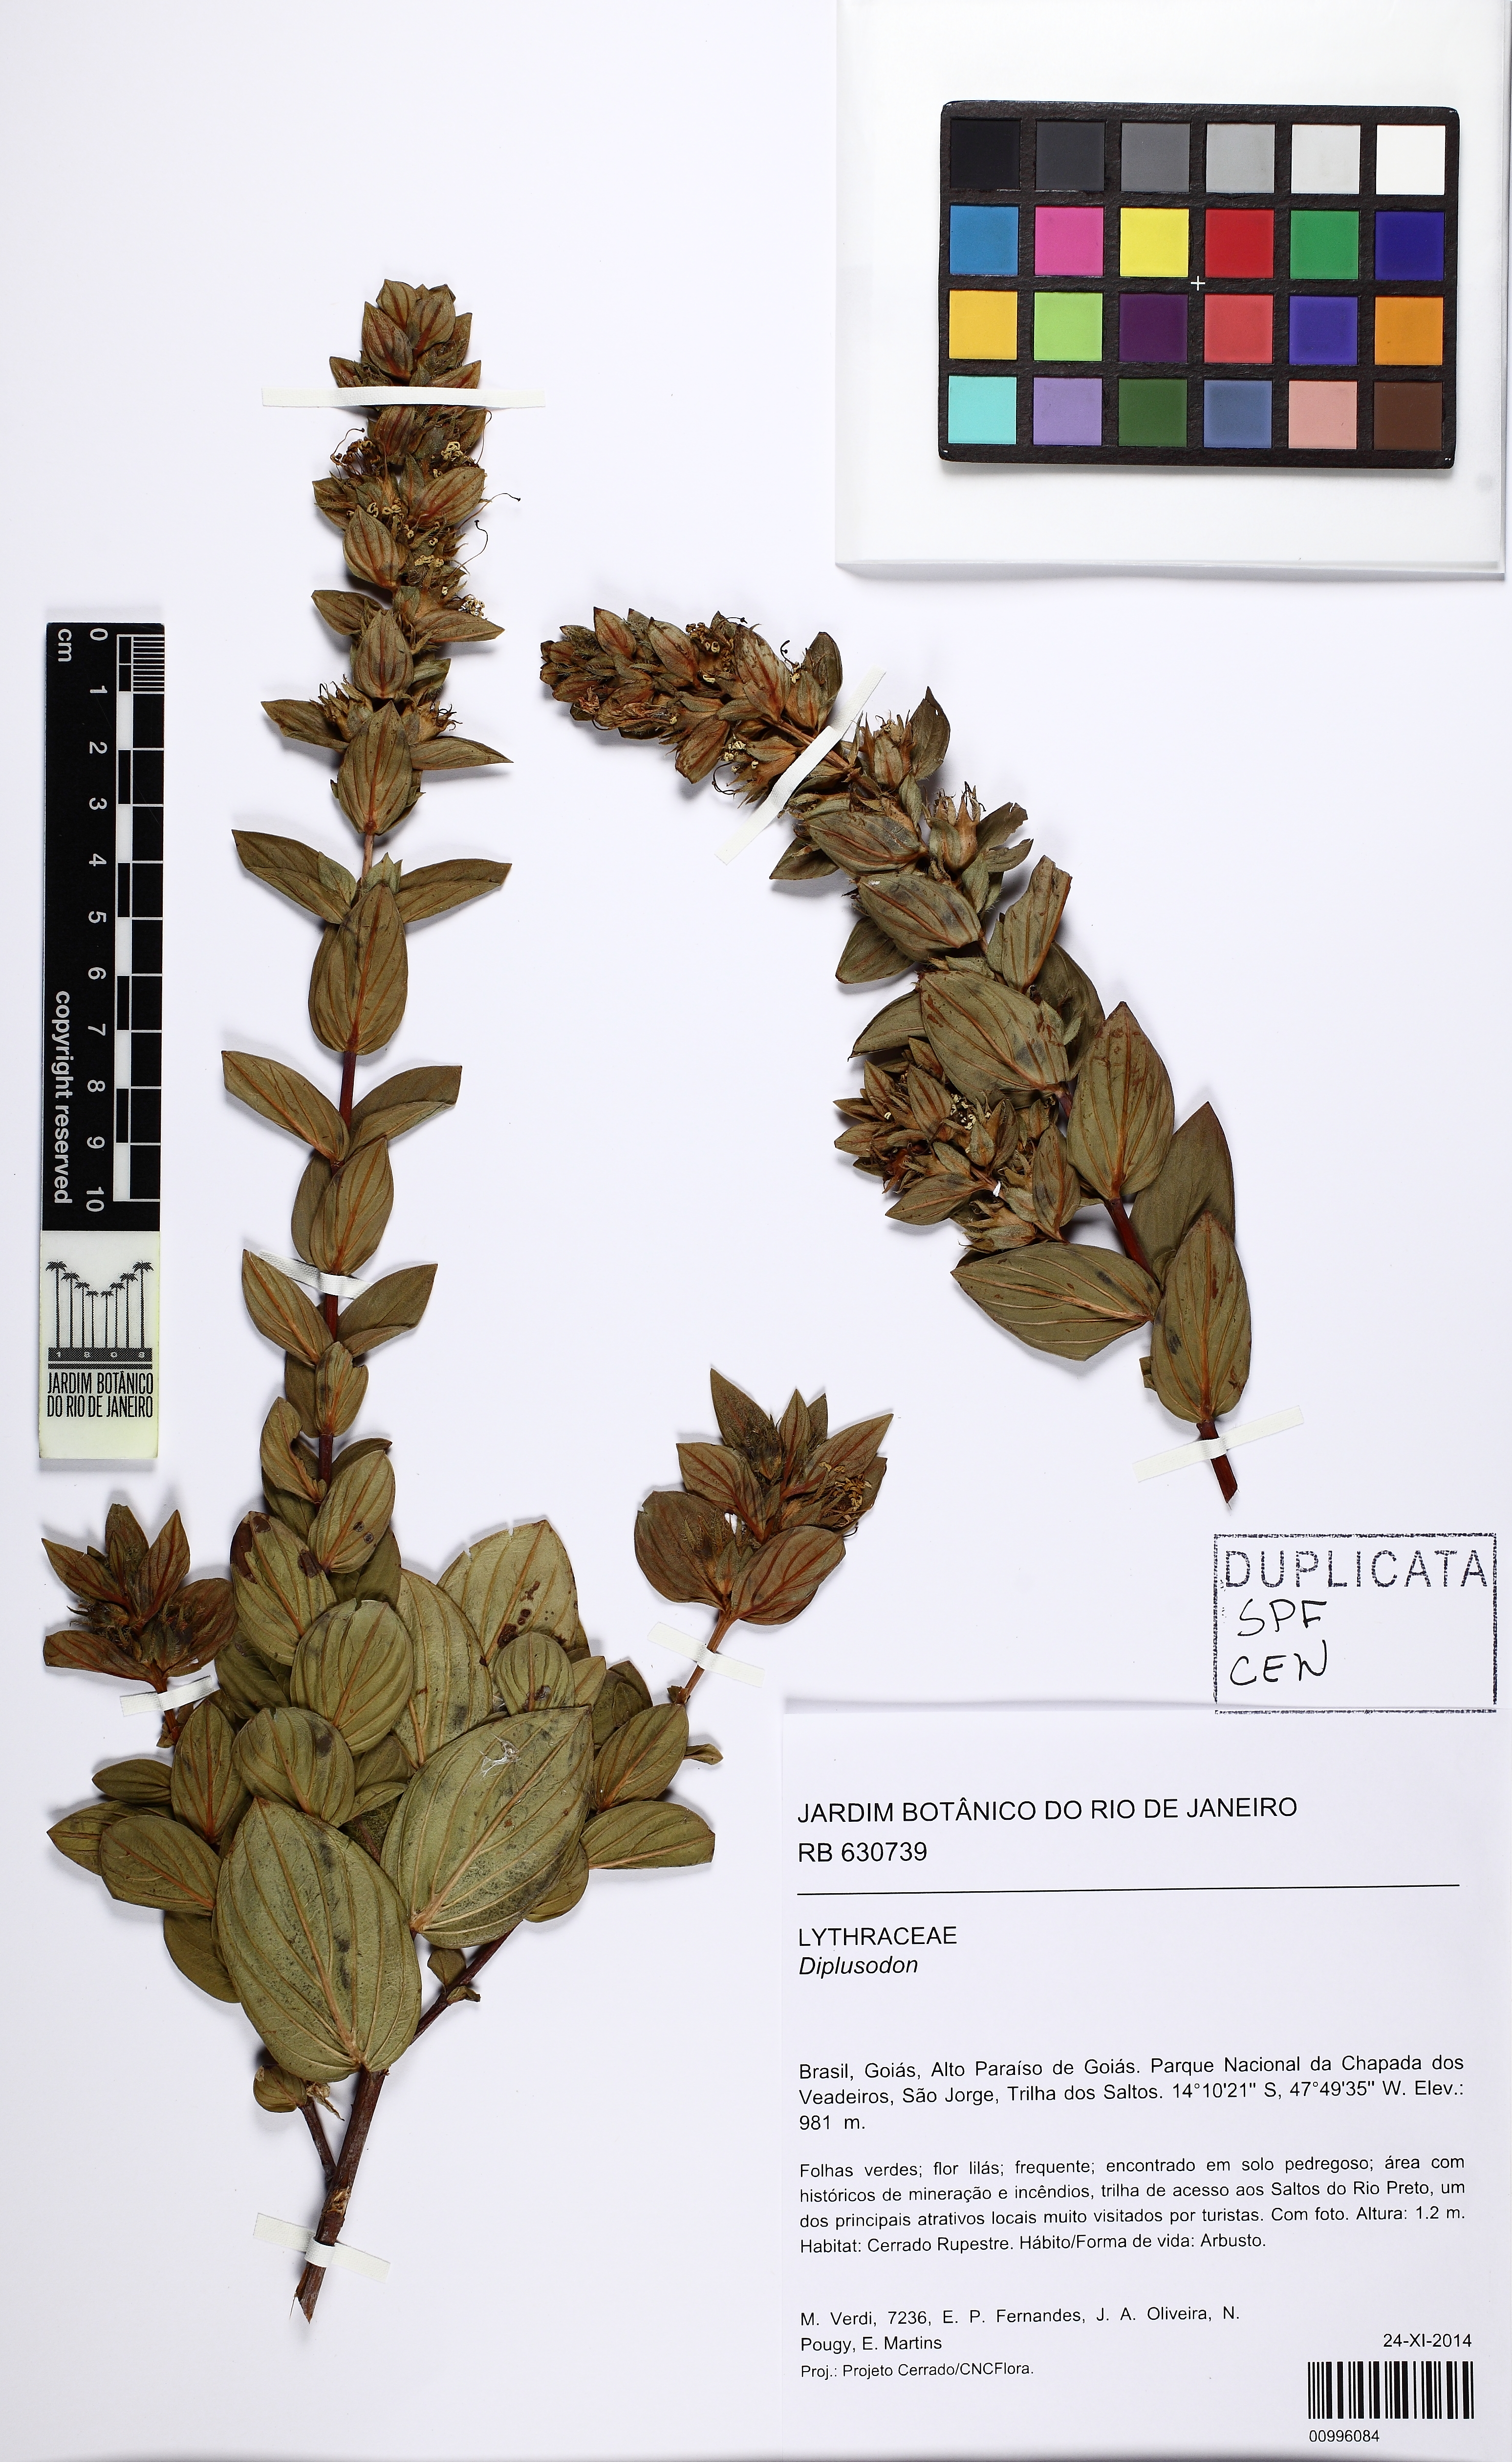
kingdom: Plantae
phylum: Tracheophyta
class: Magnoliopsida
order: Myrtales
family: Lythraceae
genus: Diplusodon
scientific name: Diplusodon
